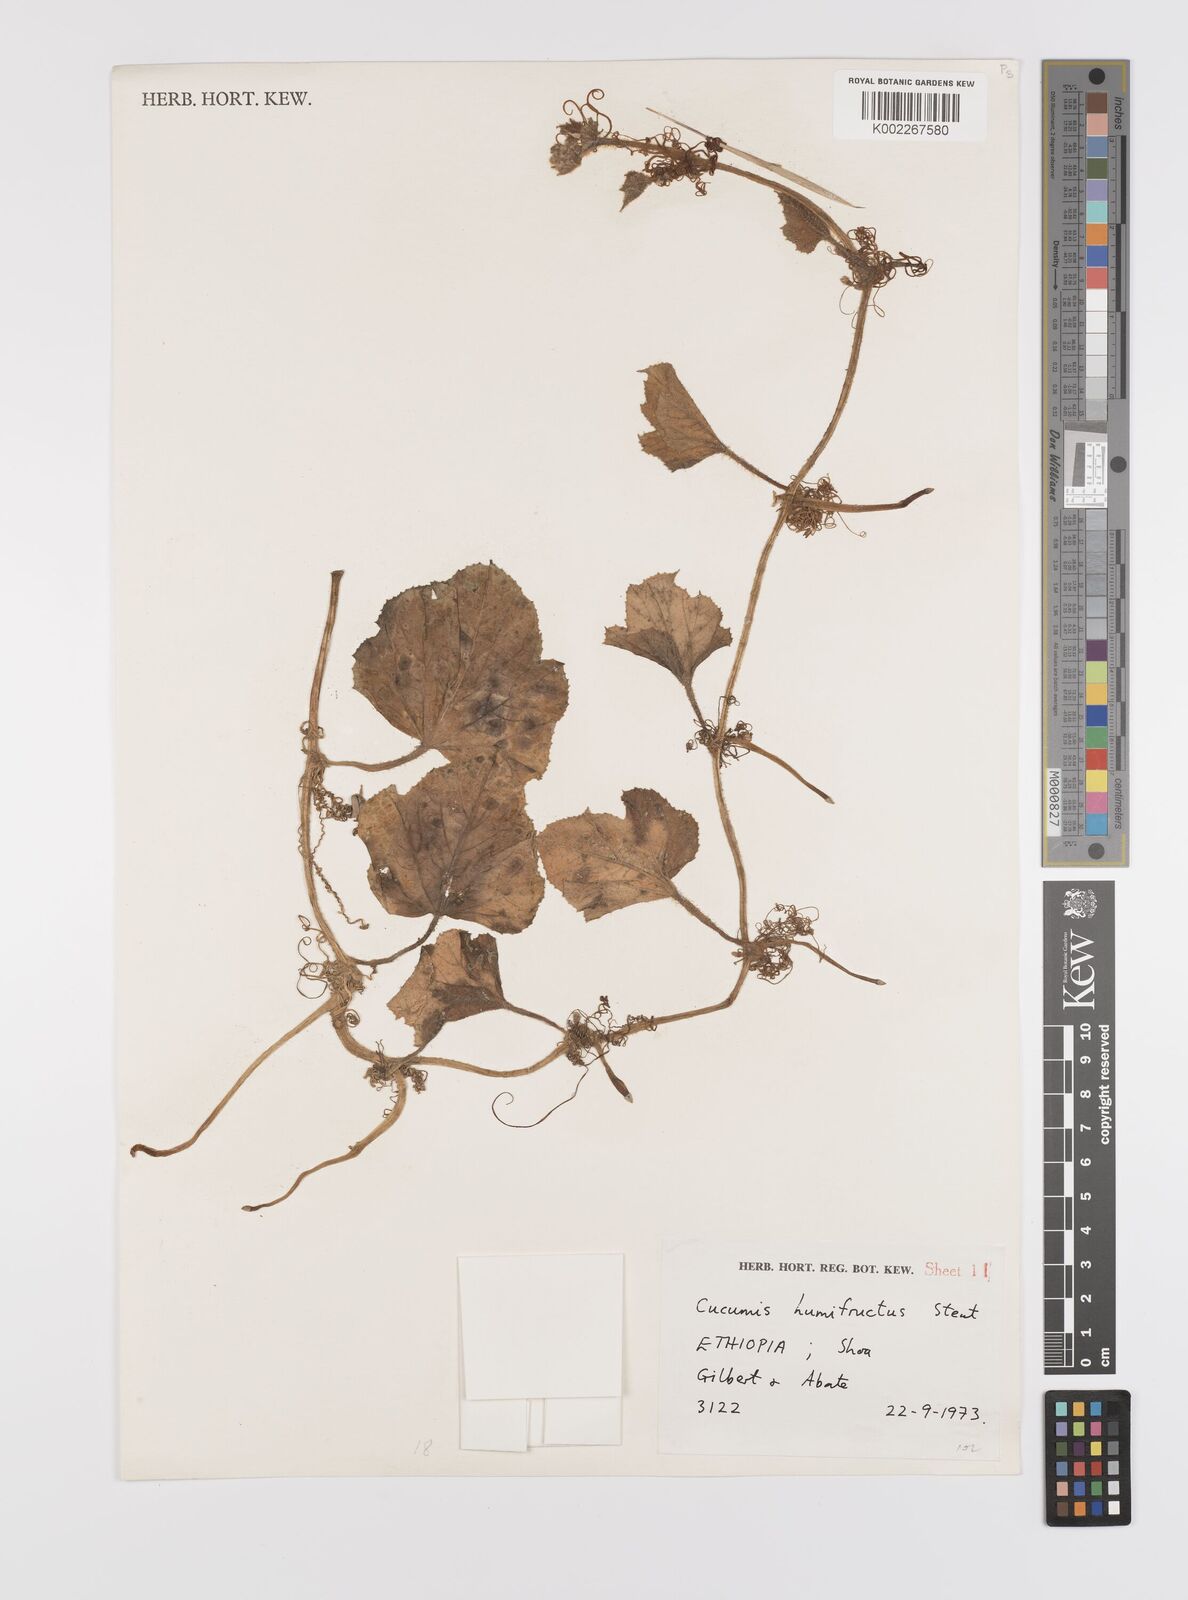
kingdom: Plantae
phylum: Tracheophyta
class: Magnoliopsida
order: Cucurbitales
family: Cucurbitaceae
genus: Cucumis
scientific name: Cucumis humofructus
